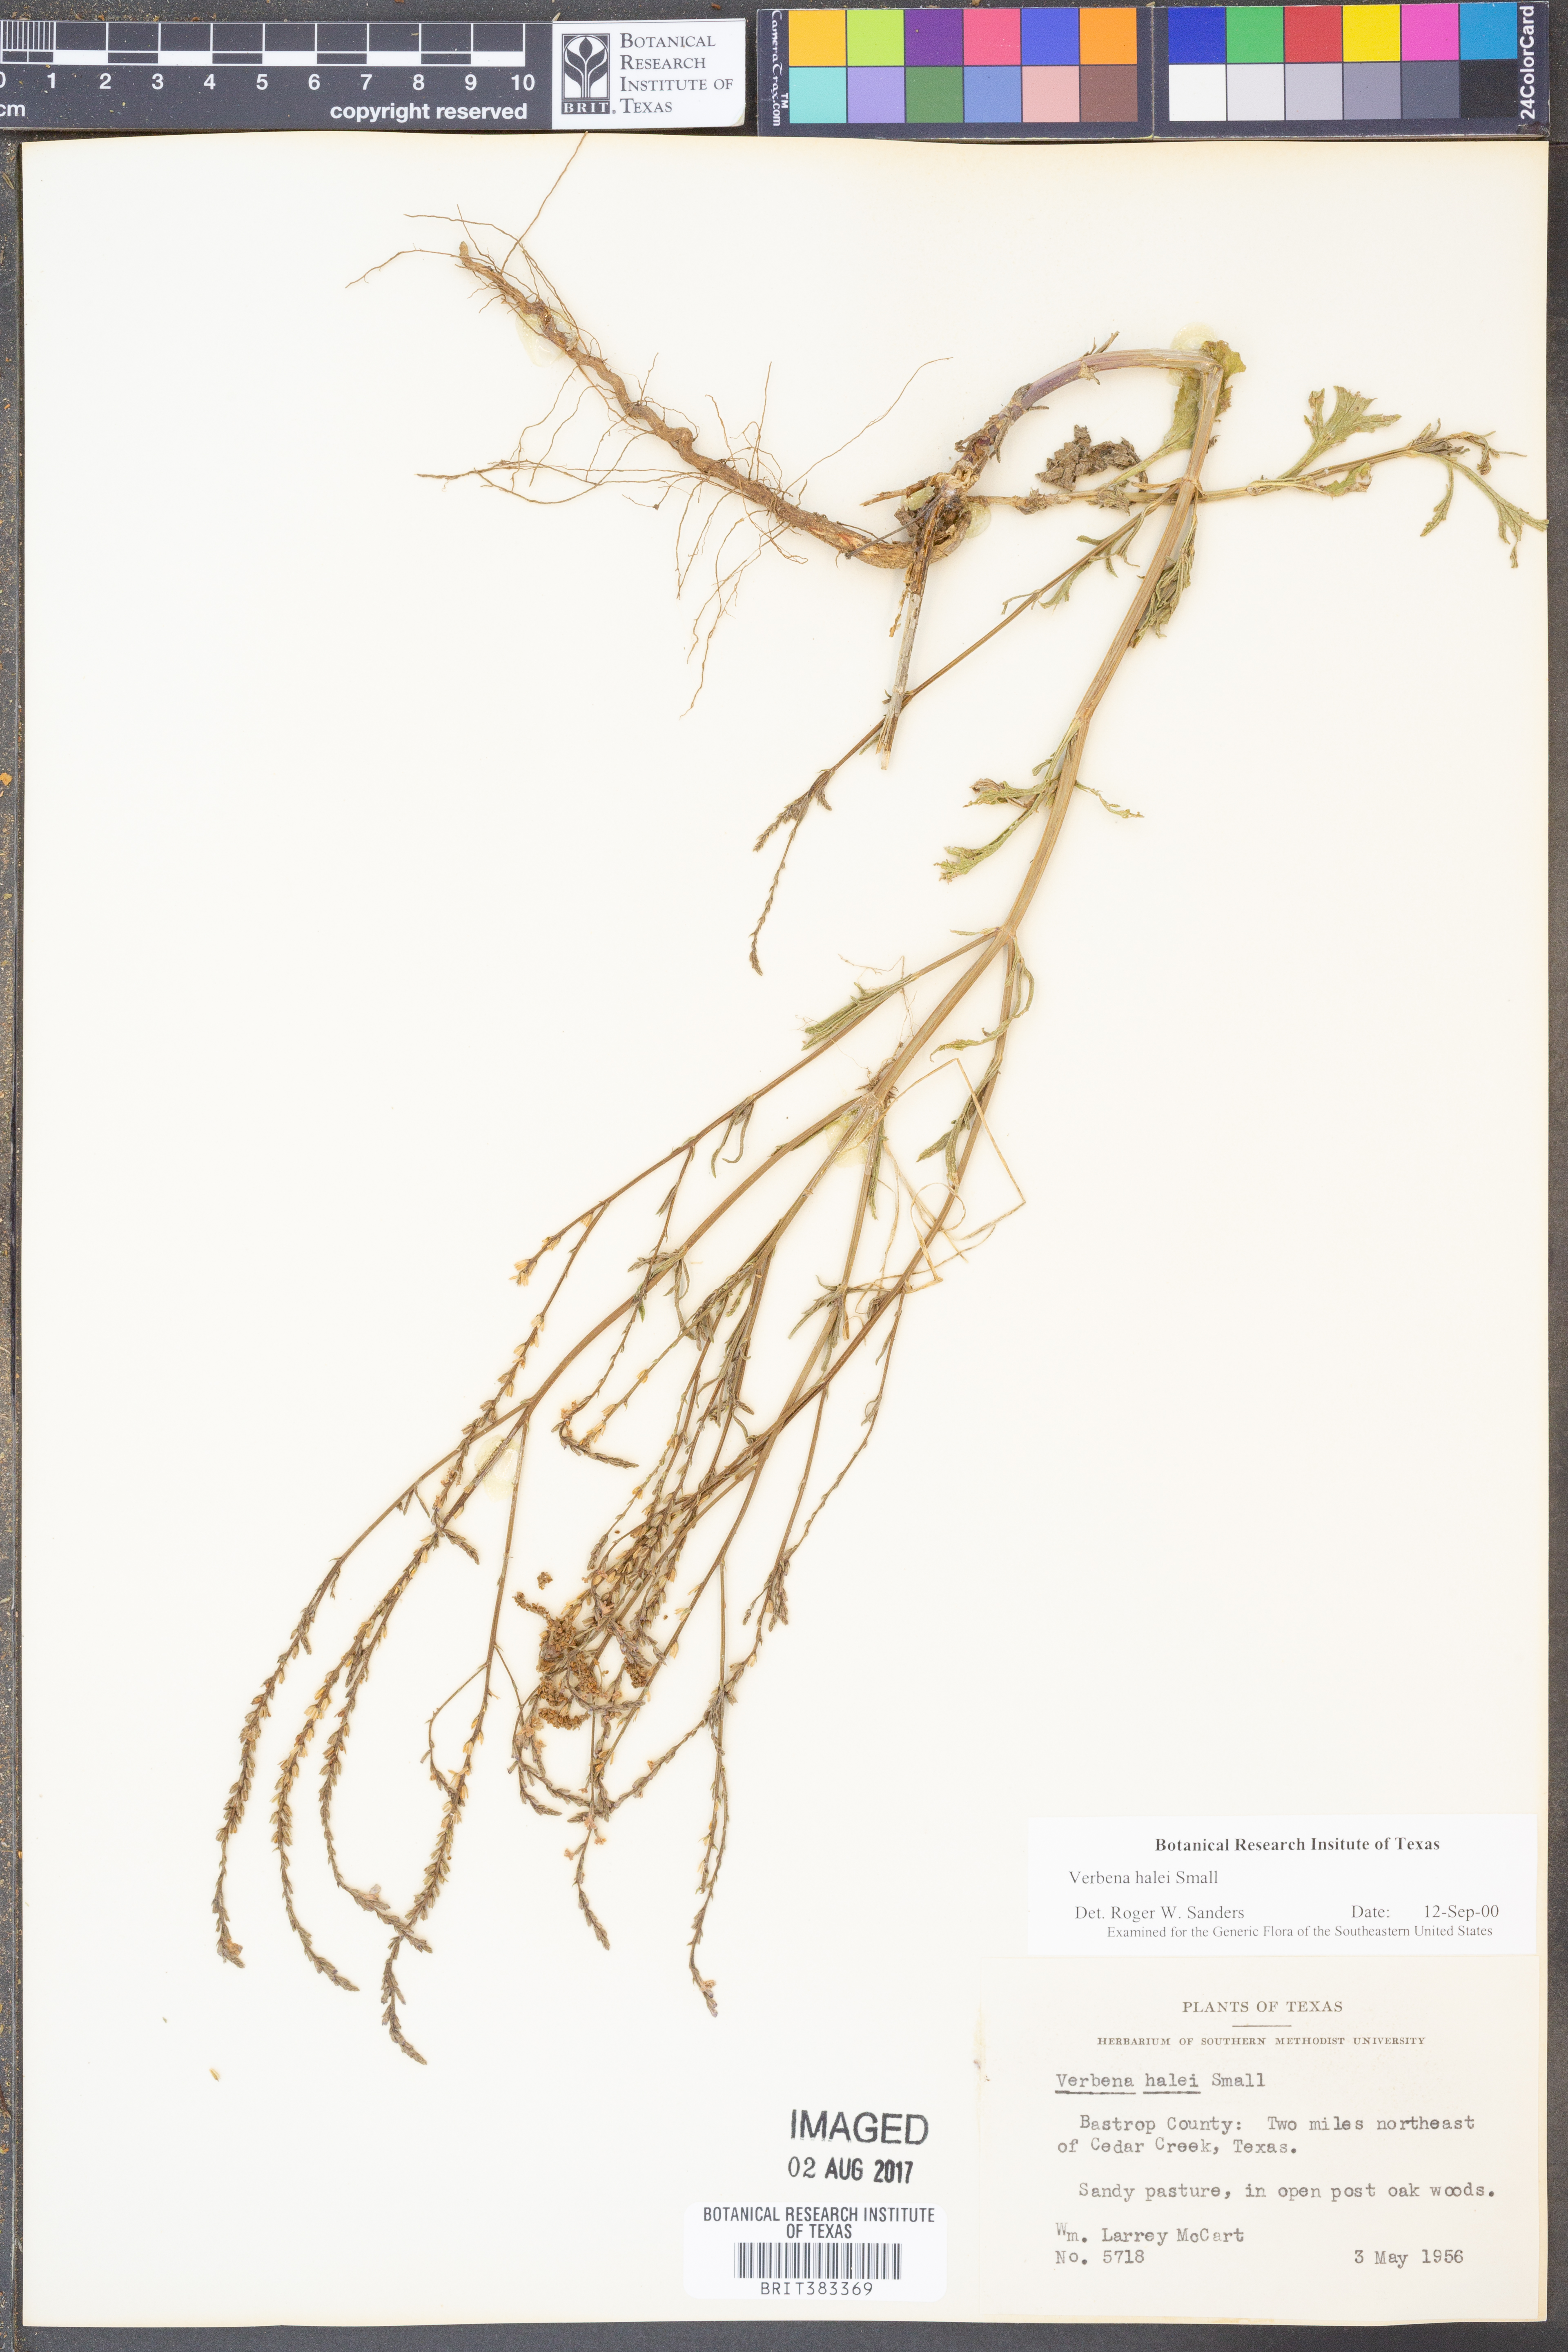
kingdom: Plantae
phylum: Tracheophyta
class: Magnoliopsida
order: Lamiales
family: Verbenaceae
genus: Verbena
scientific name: Verbena halei
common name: Texas vervain
